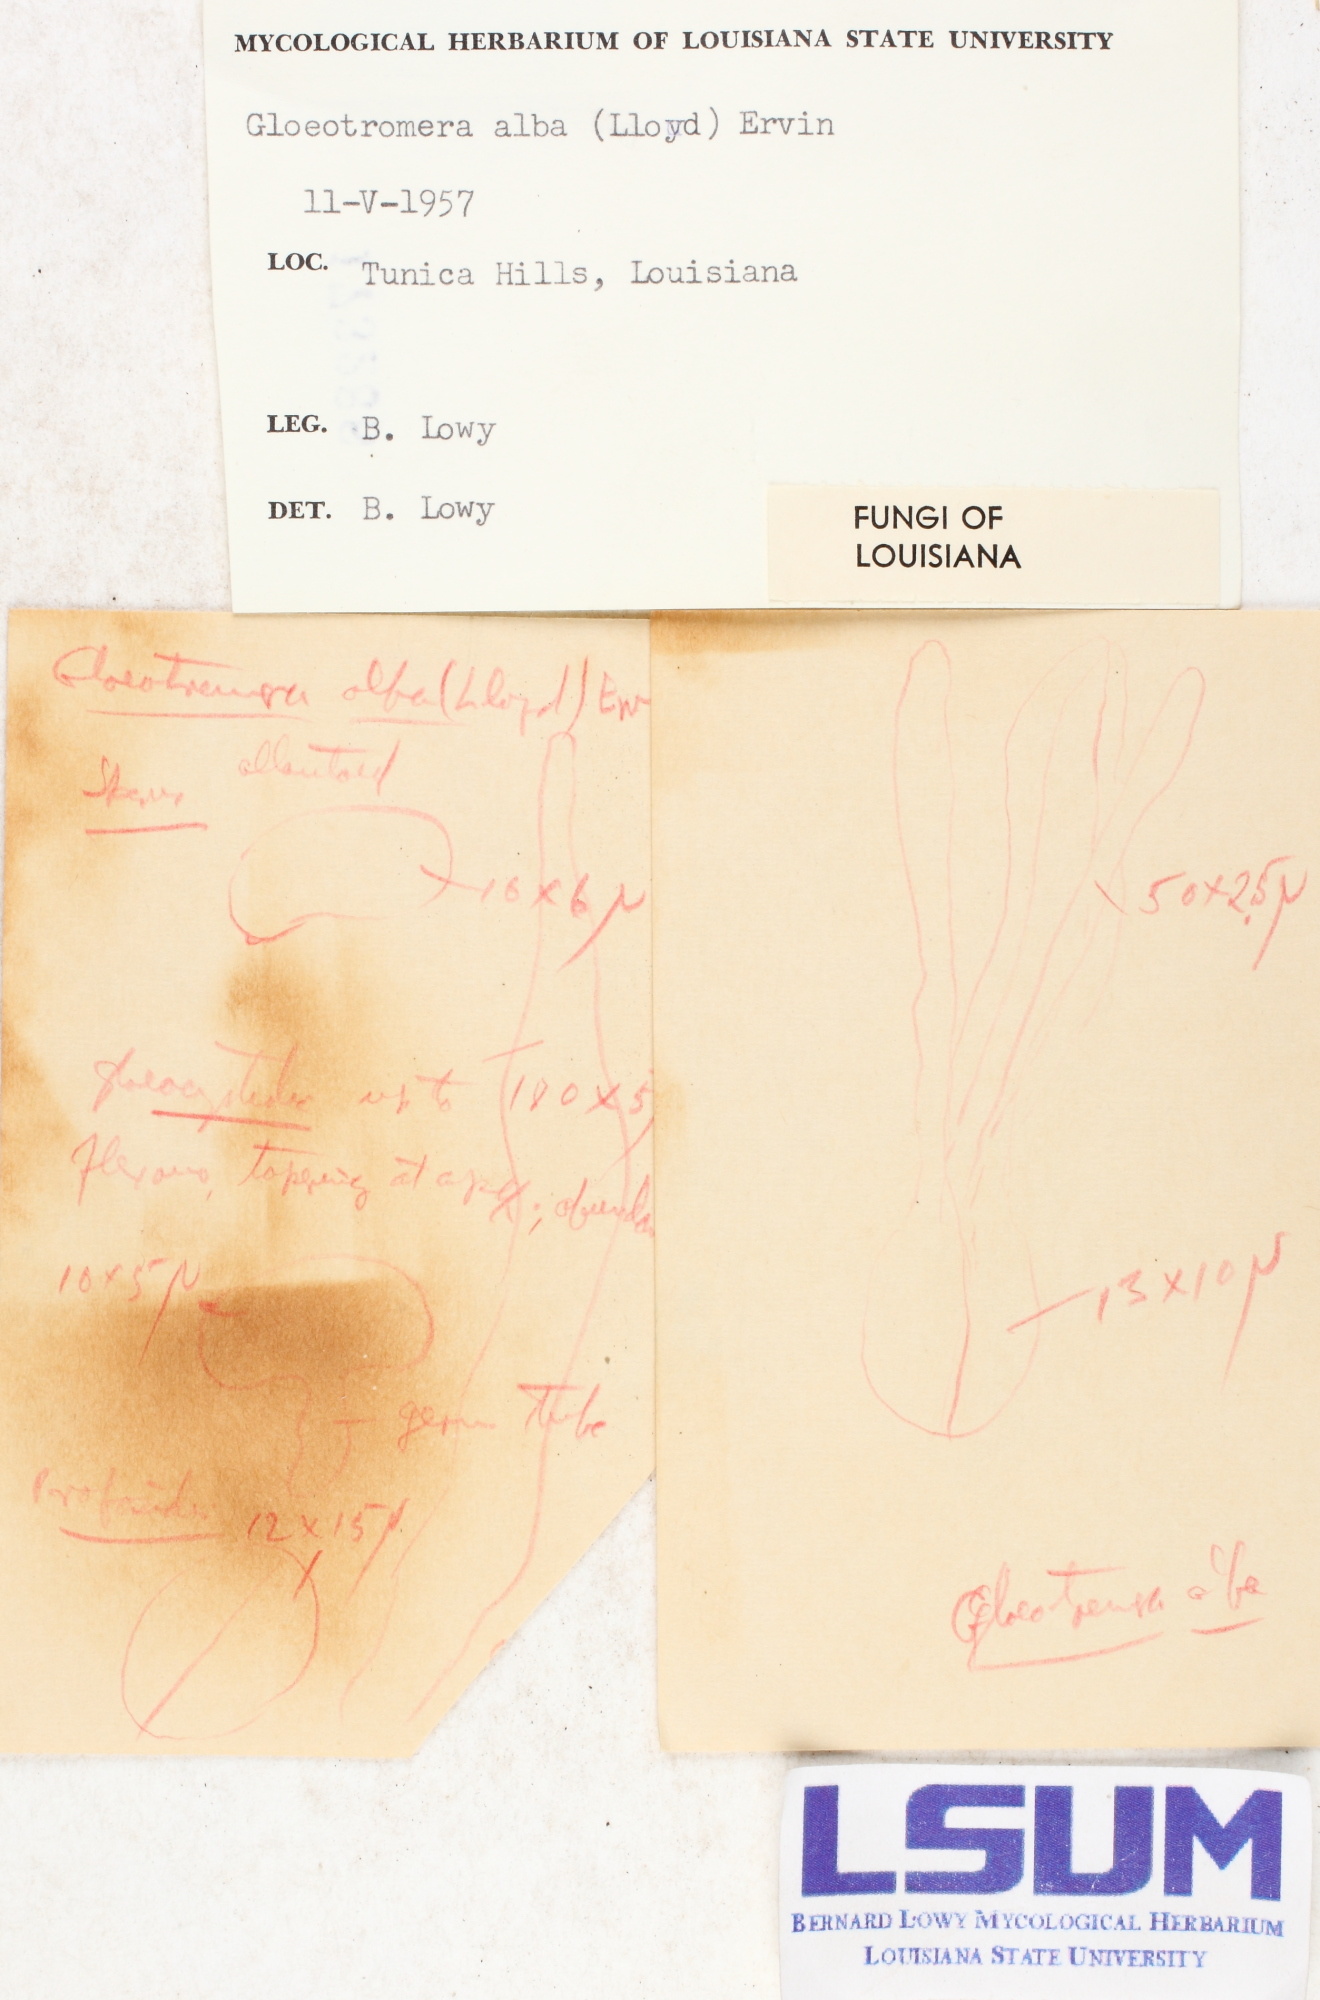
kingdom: Fungi
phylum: Basidiomycota
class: Agaricomycetes
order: Auriculariales
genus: Ductifera
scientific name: Ductifera pululahuana
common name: White jelly fungus
